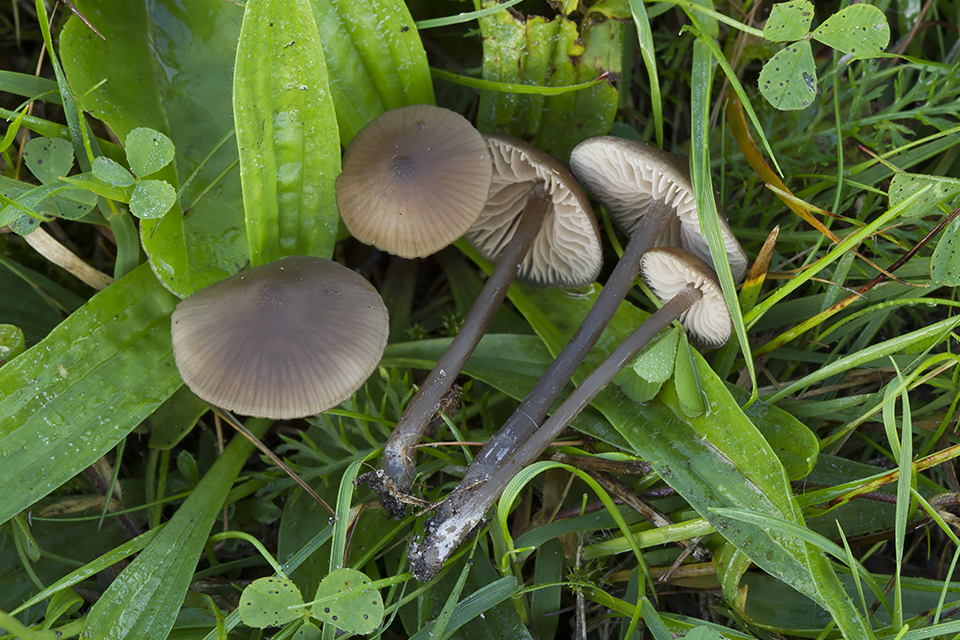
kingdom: Fungi
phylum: Basidiomycota
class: Agaricomycetes
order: Agaricales
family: Entolomataceae
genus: Entoloma
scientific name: Entoloma clandestinum
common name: tykbladet rødblad
